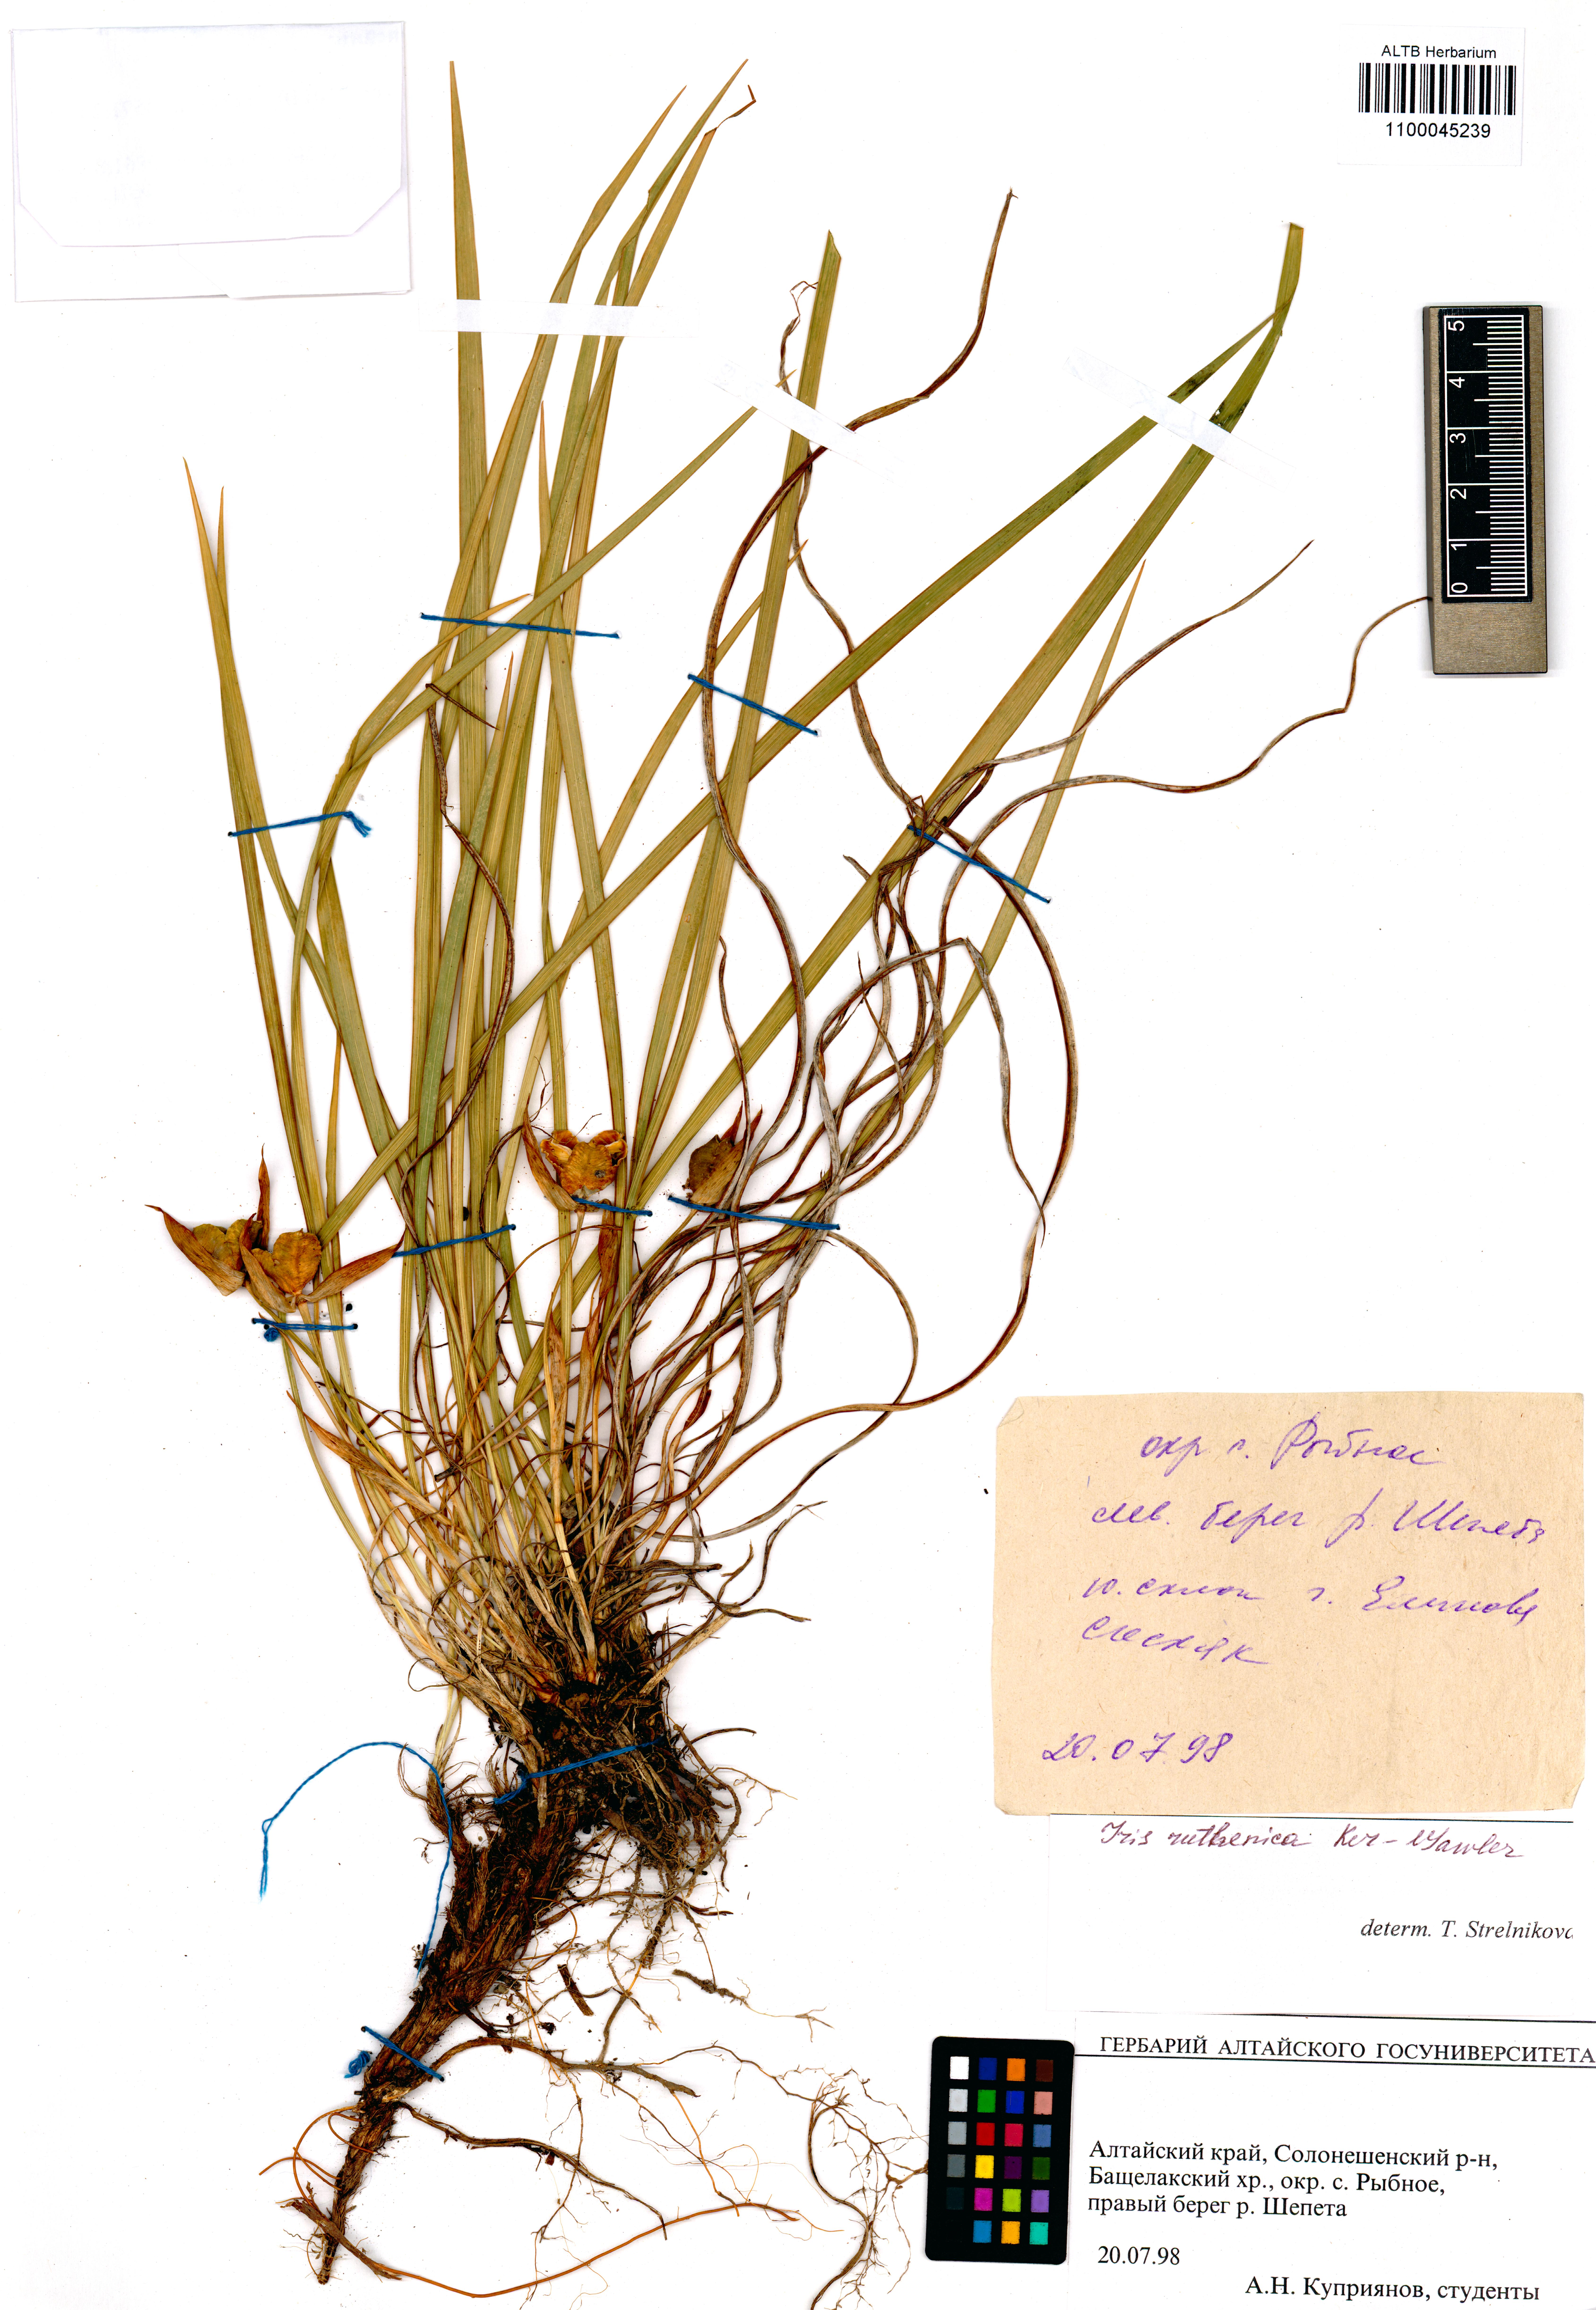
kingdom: Plantae
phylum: Tracheophyta
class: Liliopsida
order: Asparagales
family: Iridaceae
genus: Iris
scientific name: Iris ruthenica
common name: Purple-bract iris
